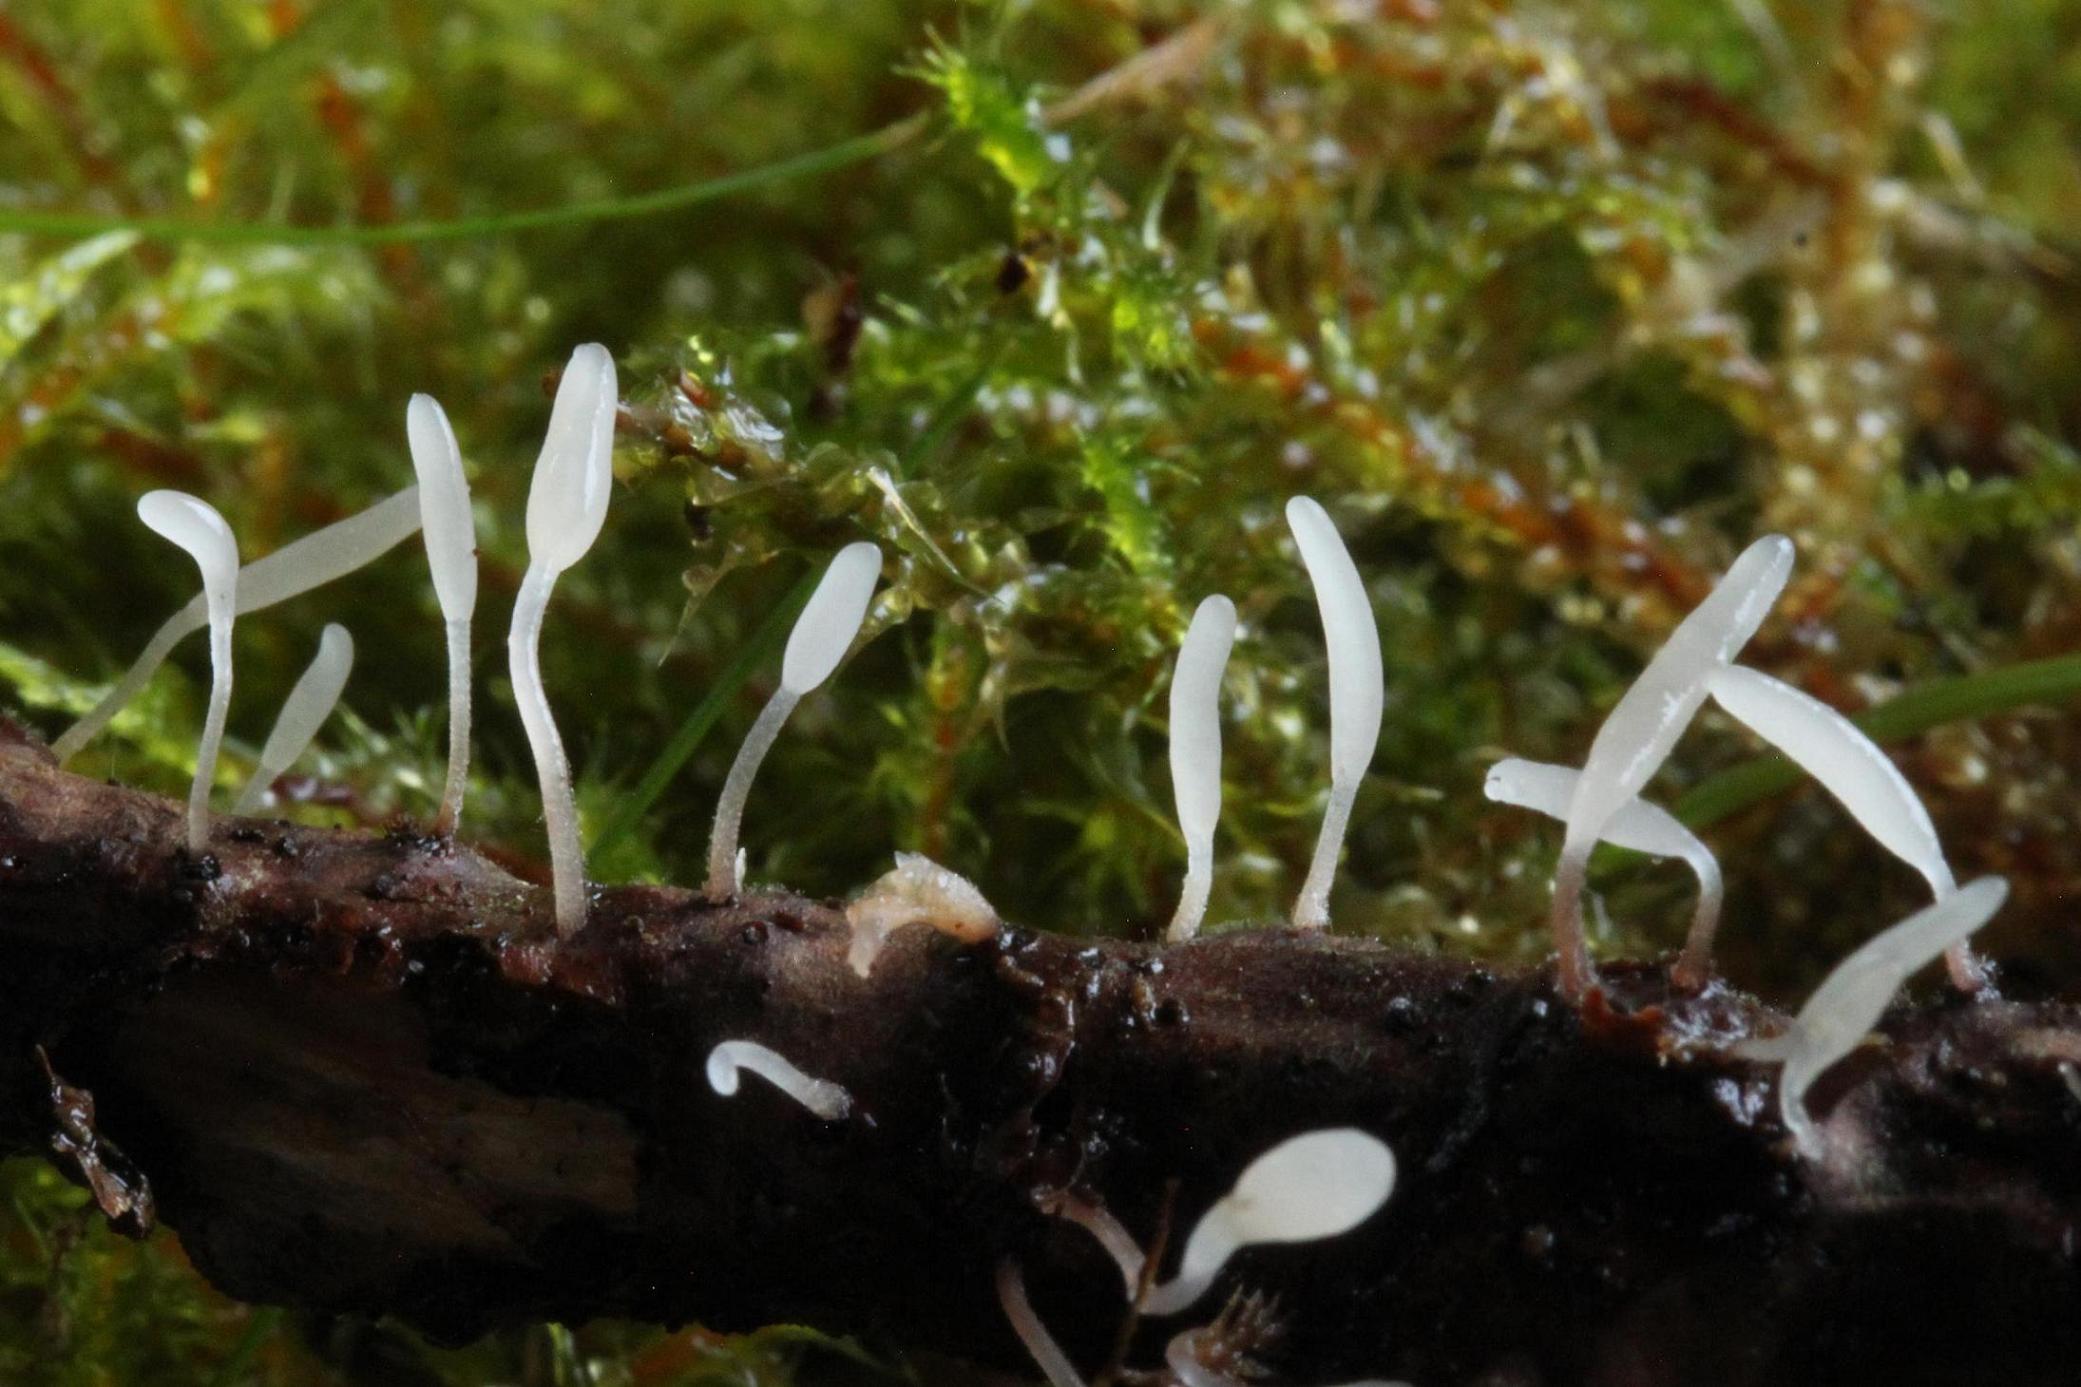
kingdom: Fungi
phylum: Basidiomycota
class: Agaricomycetes
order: Agaricales
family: Typhulaceae
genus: Typhula
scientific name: Typhula spathulata
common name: aske-trådkølle
